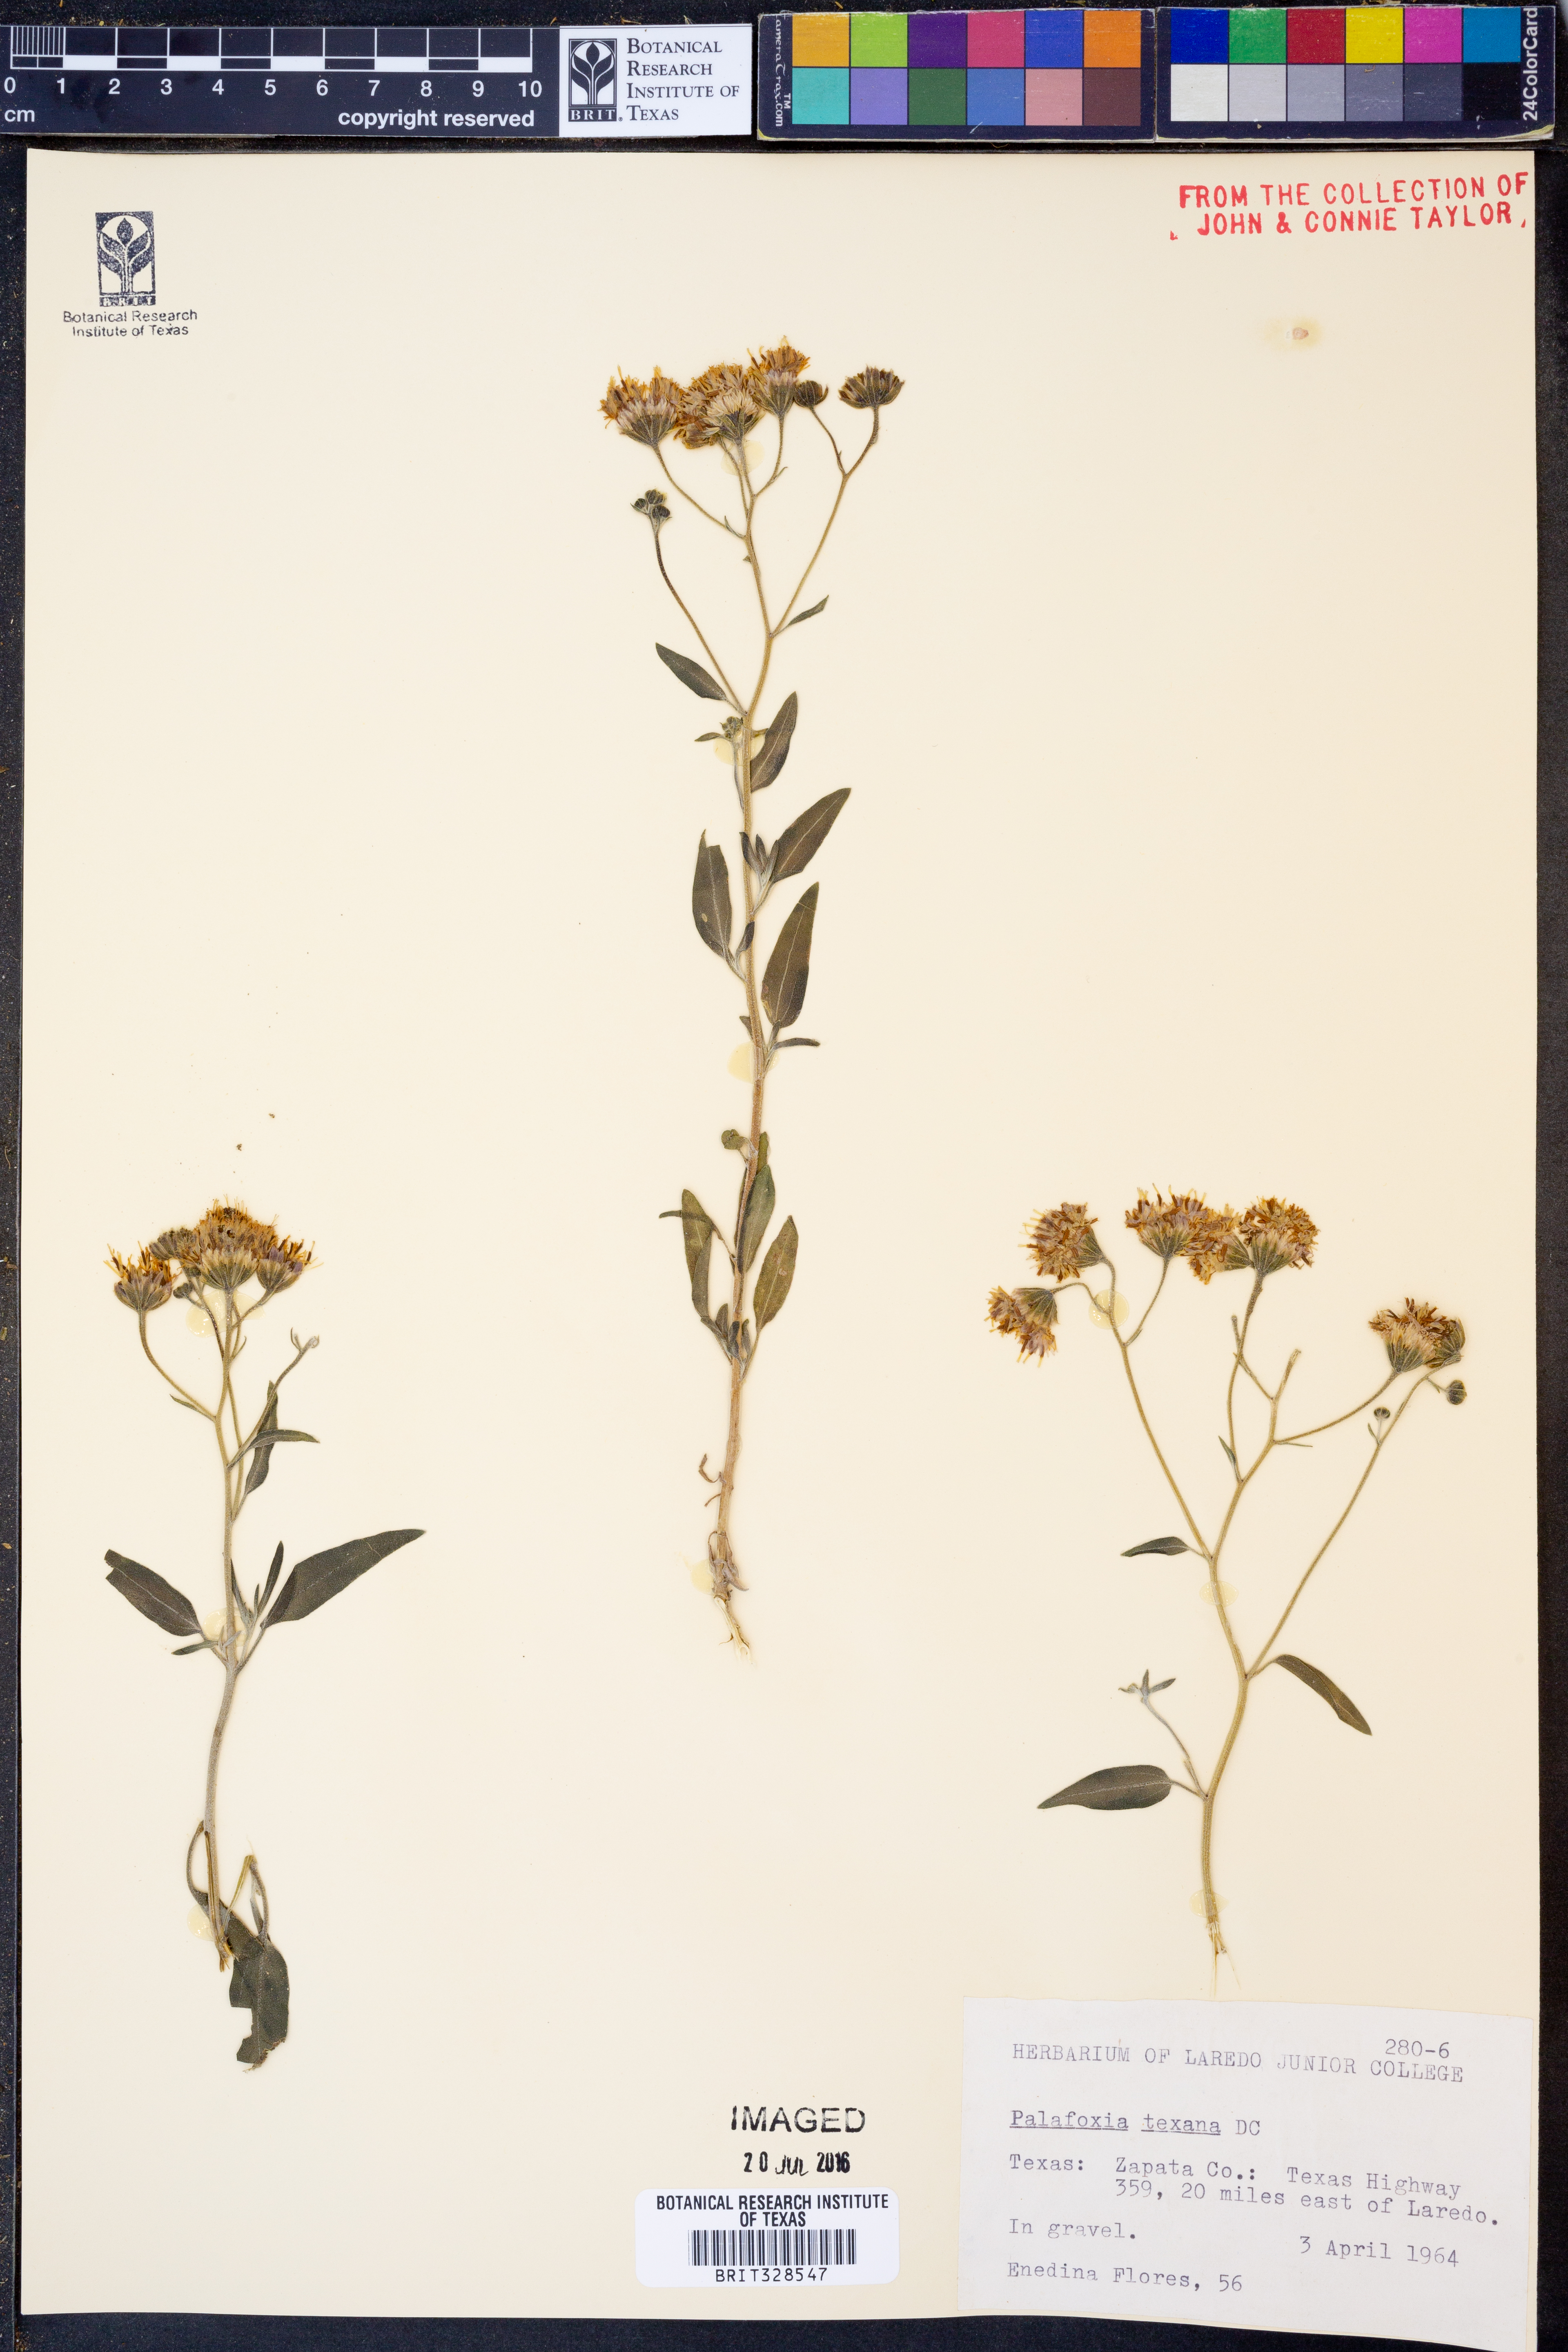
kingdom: Plantae
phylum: Tracheophyta
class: Magnoliopsida
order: Asterales
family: Asteraceae
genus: Palafoxia
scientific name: Palafoxia texana
